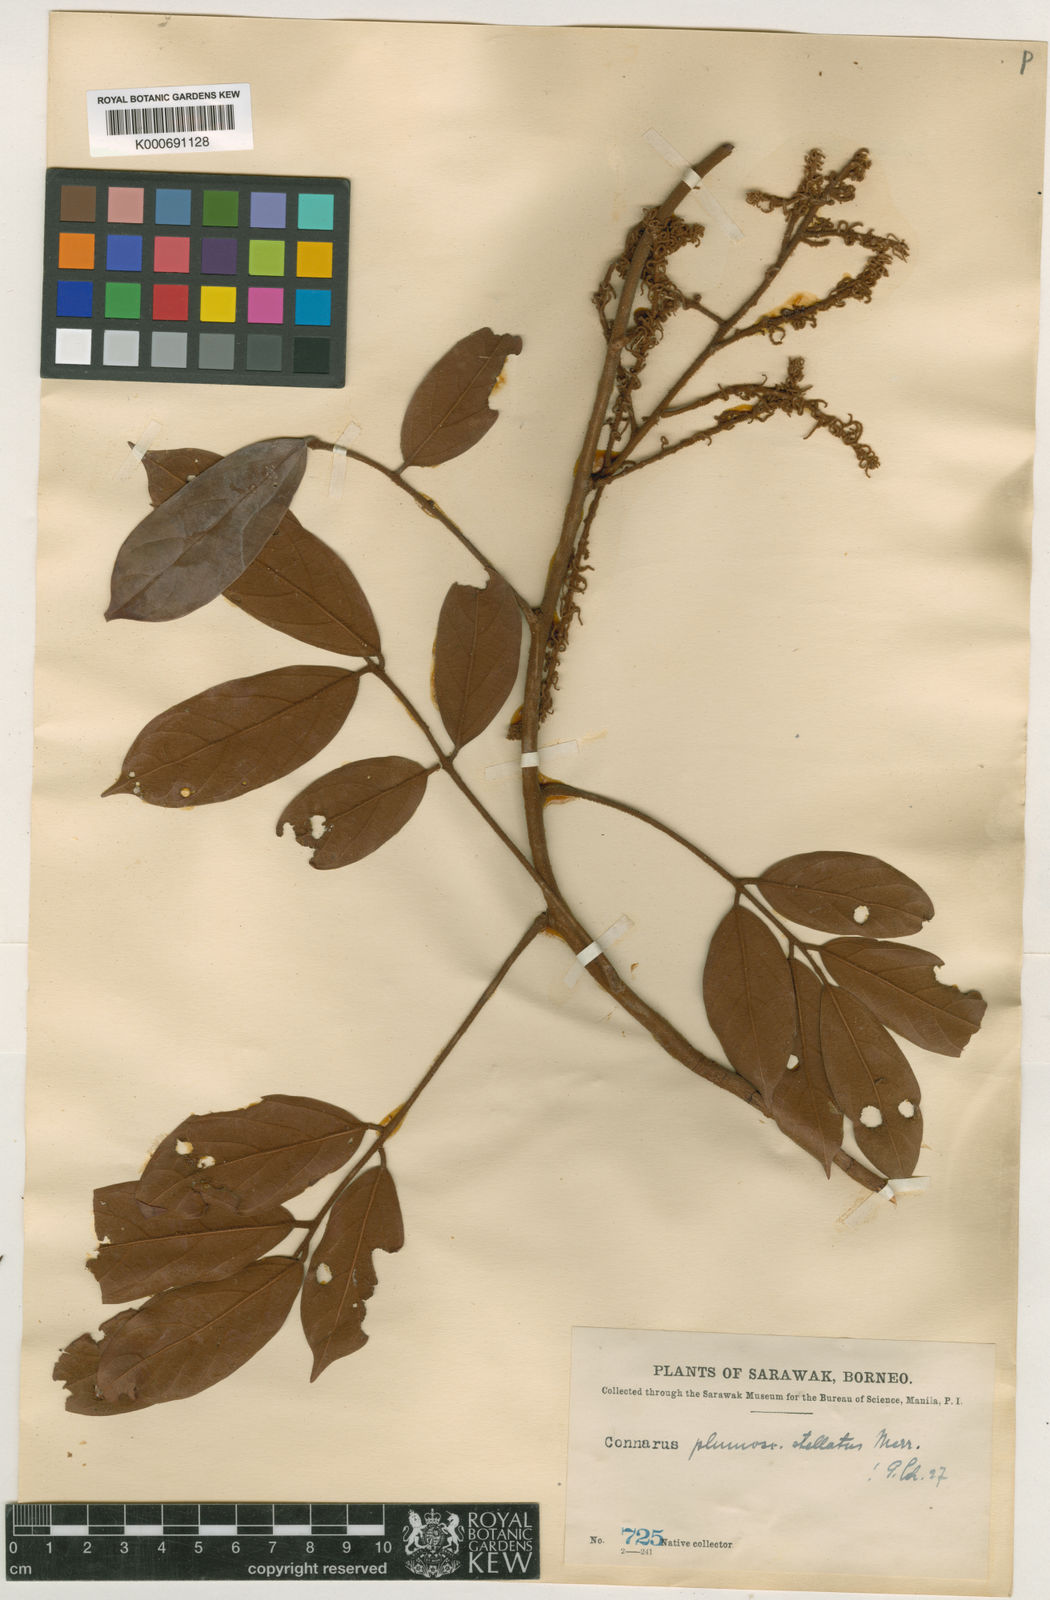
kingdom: Plantae
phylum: Tracheophyta
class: Magnoliopsida
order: Oxalidales
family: Connaraceae
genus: Connarus
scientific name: Connarus villosus
